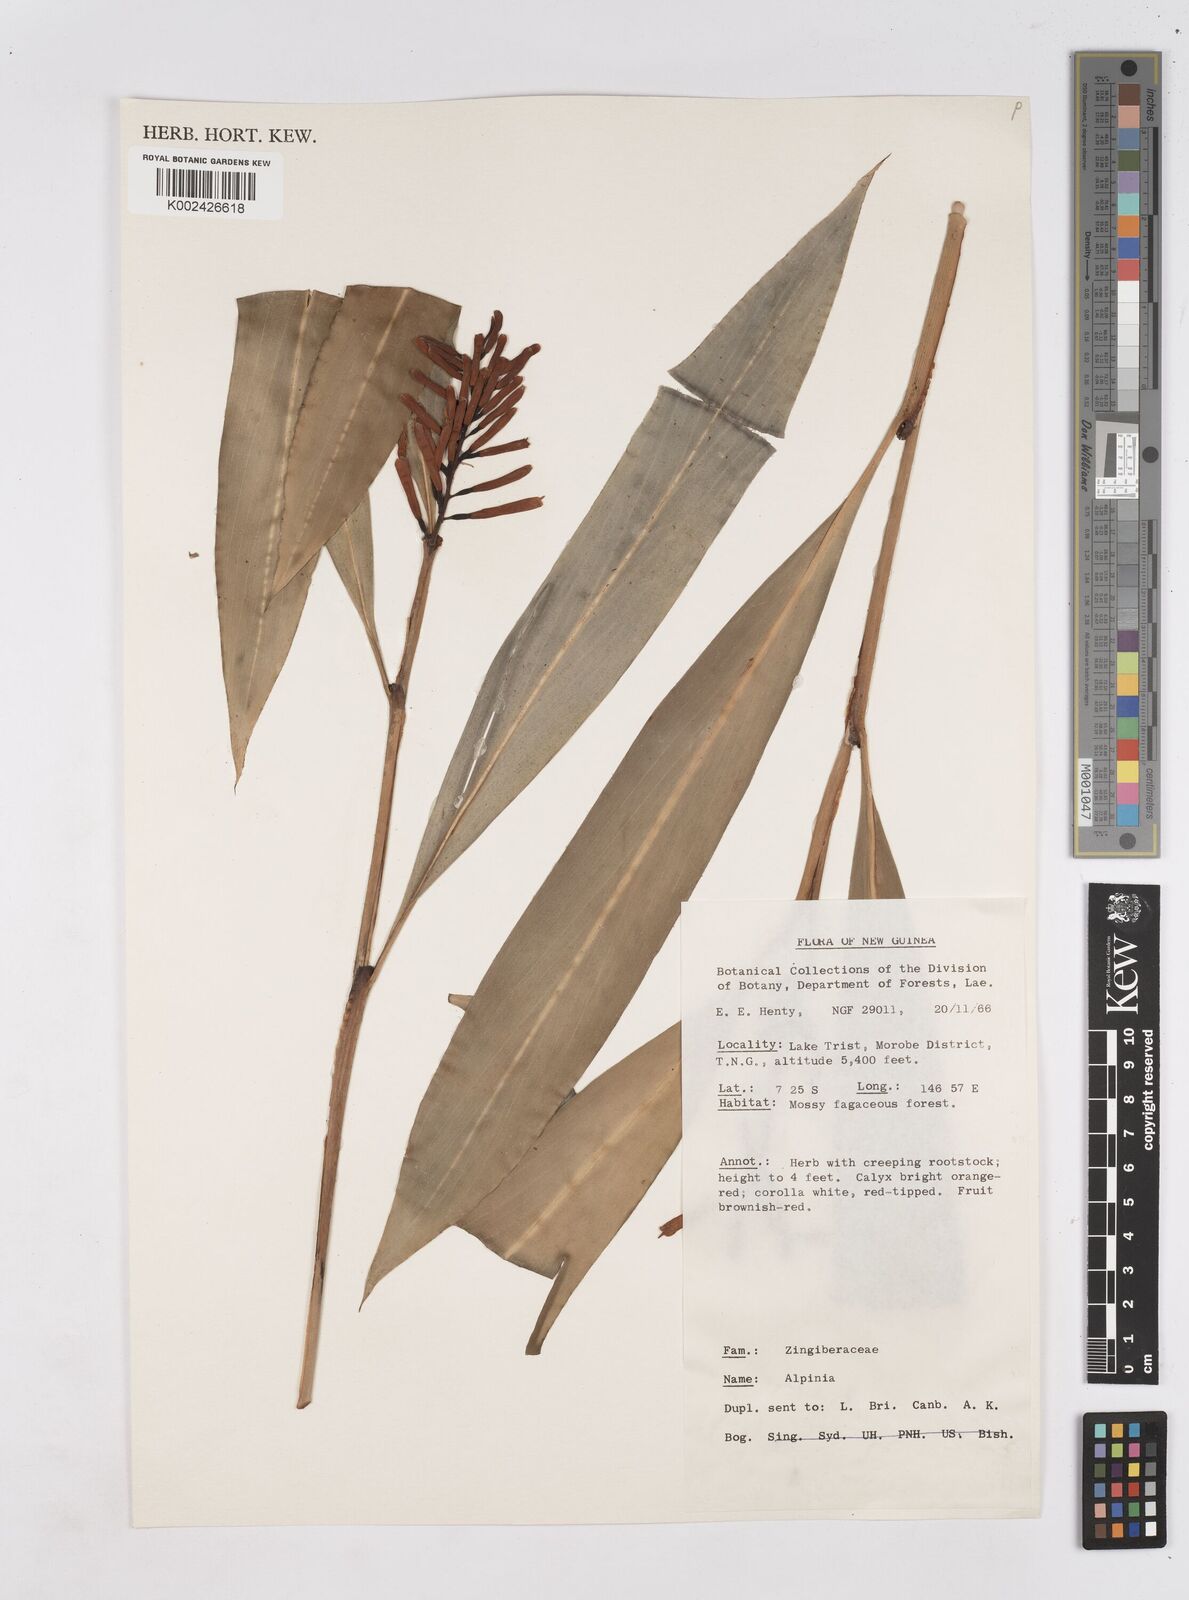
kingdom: Plantae
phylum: Tracheophyta
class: Liliopsida
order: Zingiberales
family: Zingiberaceae
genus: Riedelia
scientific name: Riedelia
